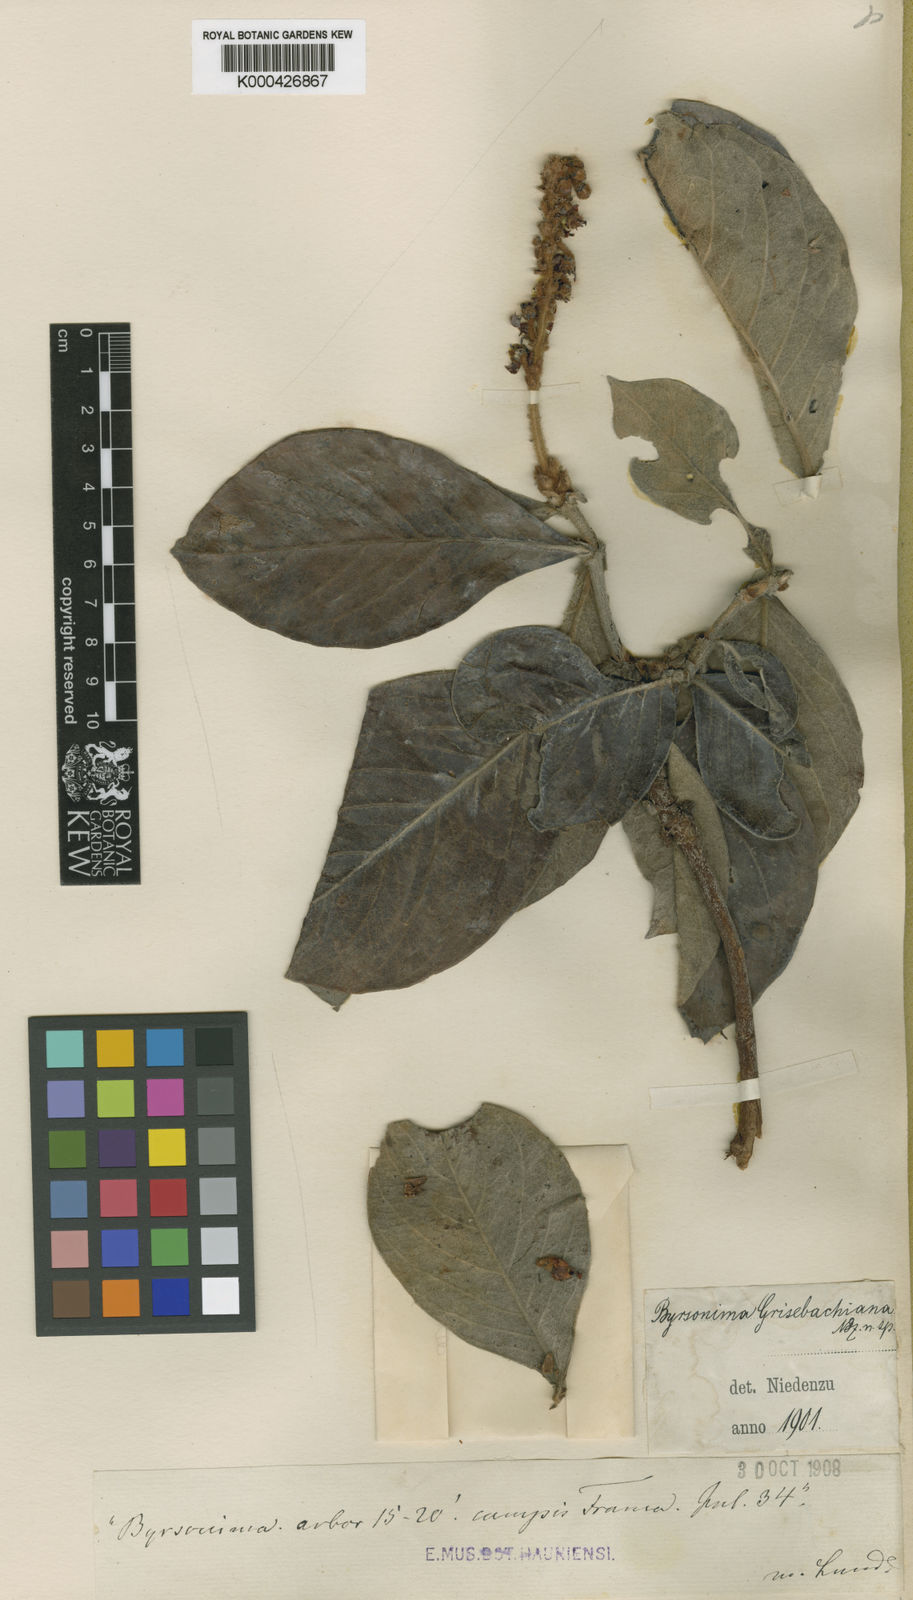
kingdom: Plantae
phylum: Tracheophyta
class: Magnoliopsida
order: Malpighiales
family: Malpighiaceae
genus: Byrsonima
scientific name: Byrsonima pachyphylla
